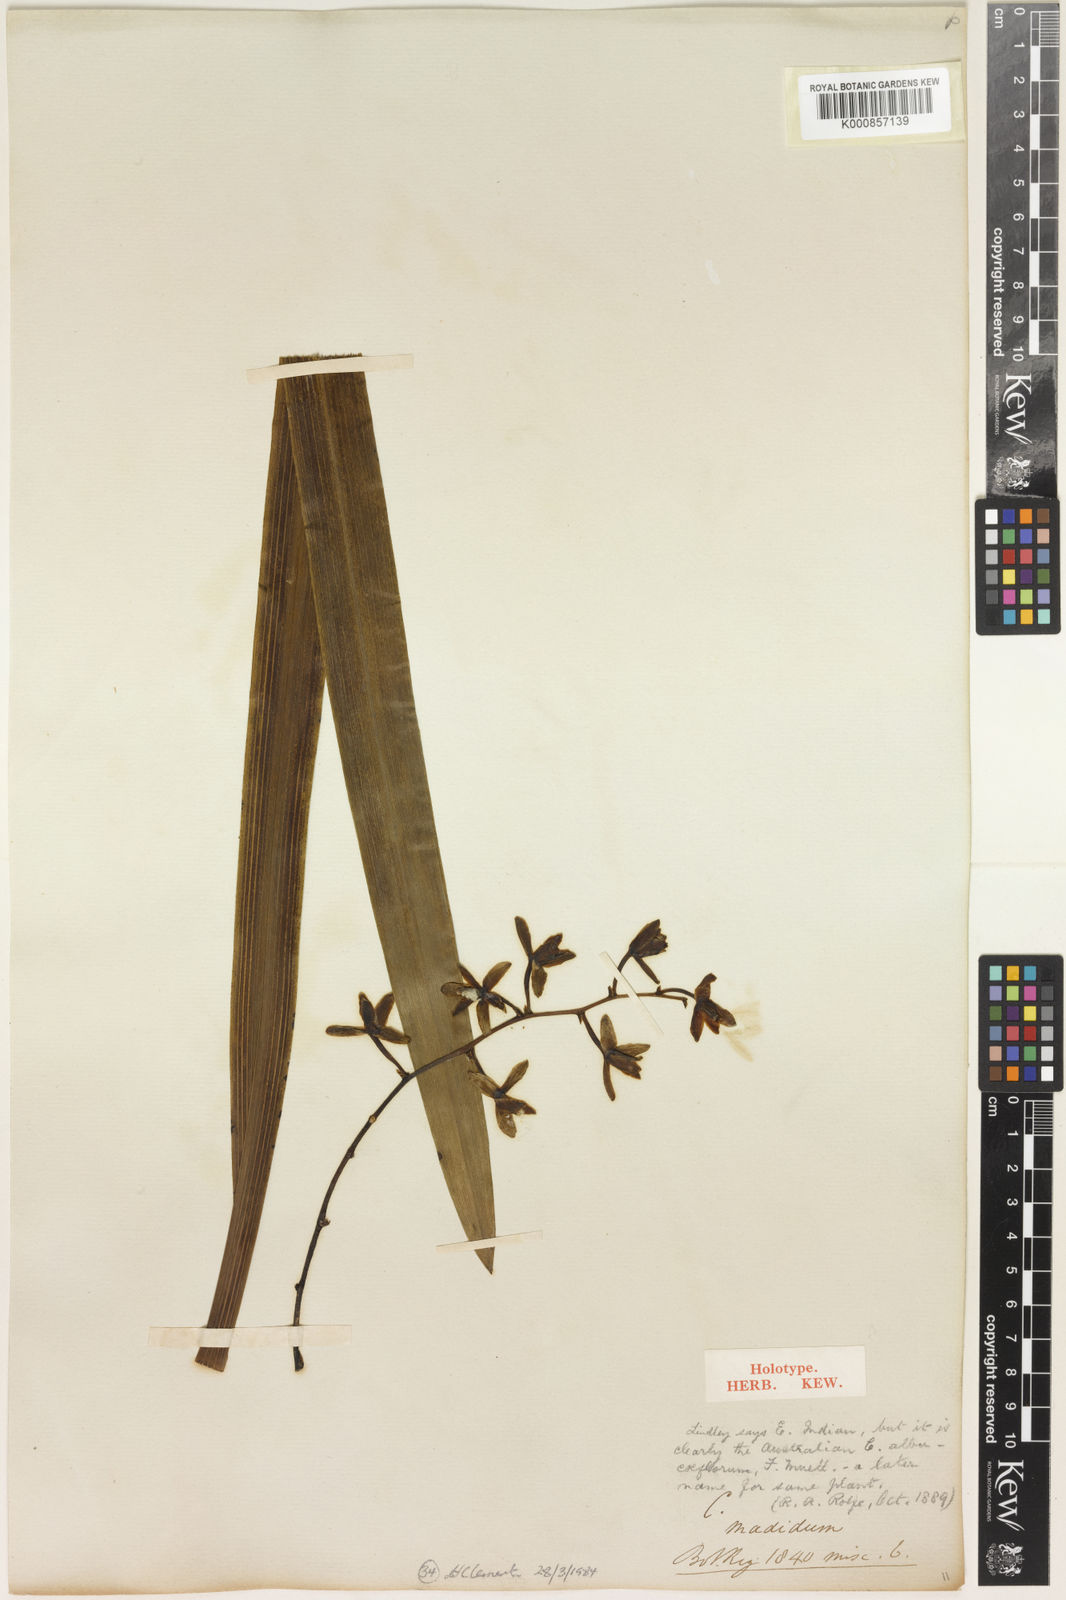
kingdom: Plantae
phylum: Tracheophyta
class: Liliopsida
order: Asparagales
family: Orchidaceae
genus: Cymbidium
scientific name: Cymbidium madidum
